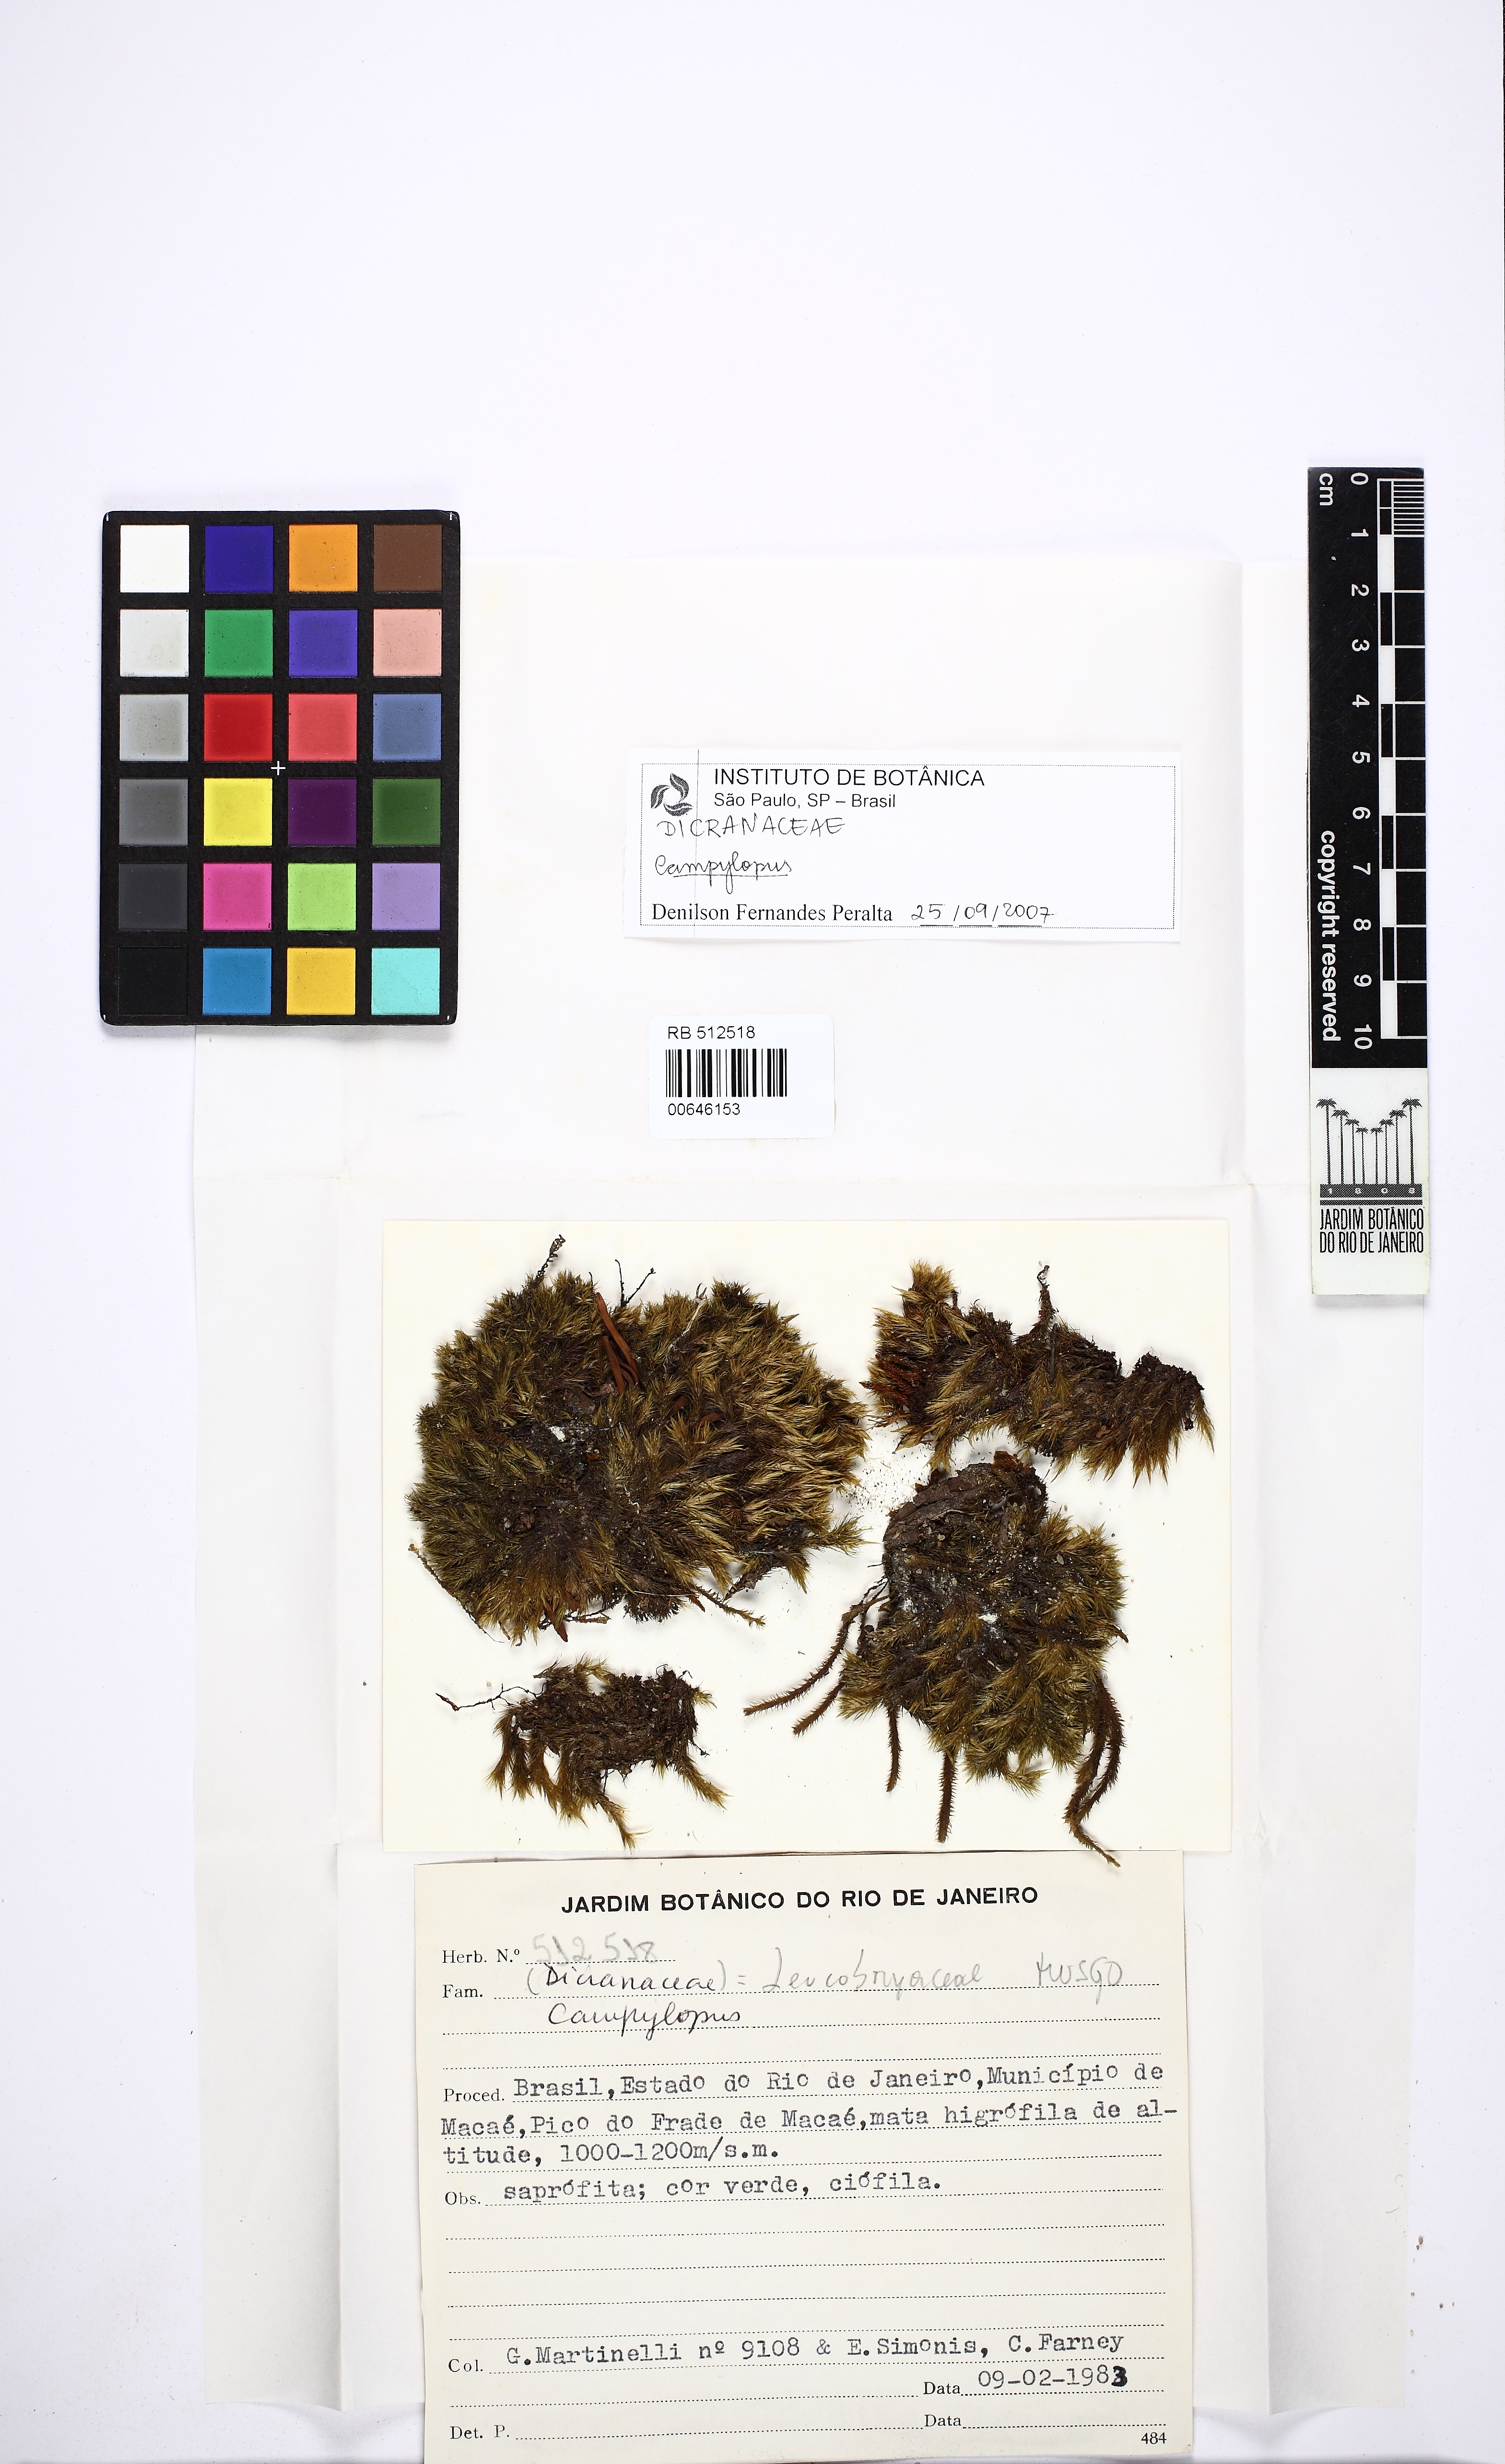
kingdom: Plantae
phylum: Bryophyta
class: Bryopsida
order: Dicranales
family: Leucobryaceae
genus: Campylopus
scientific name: Campylopus
